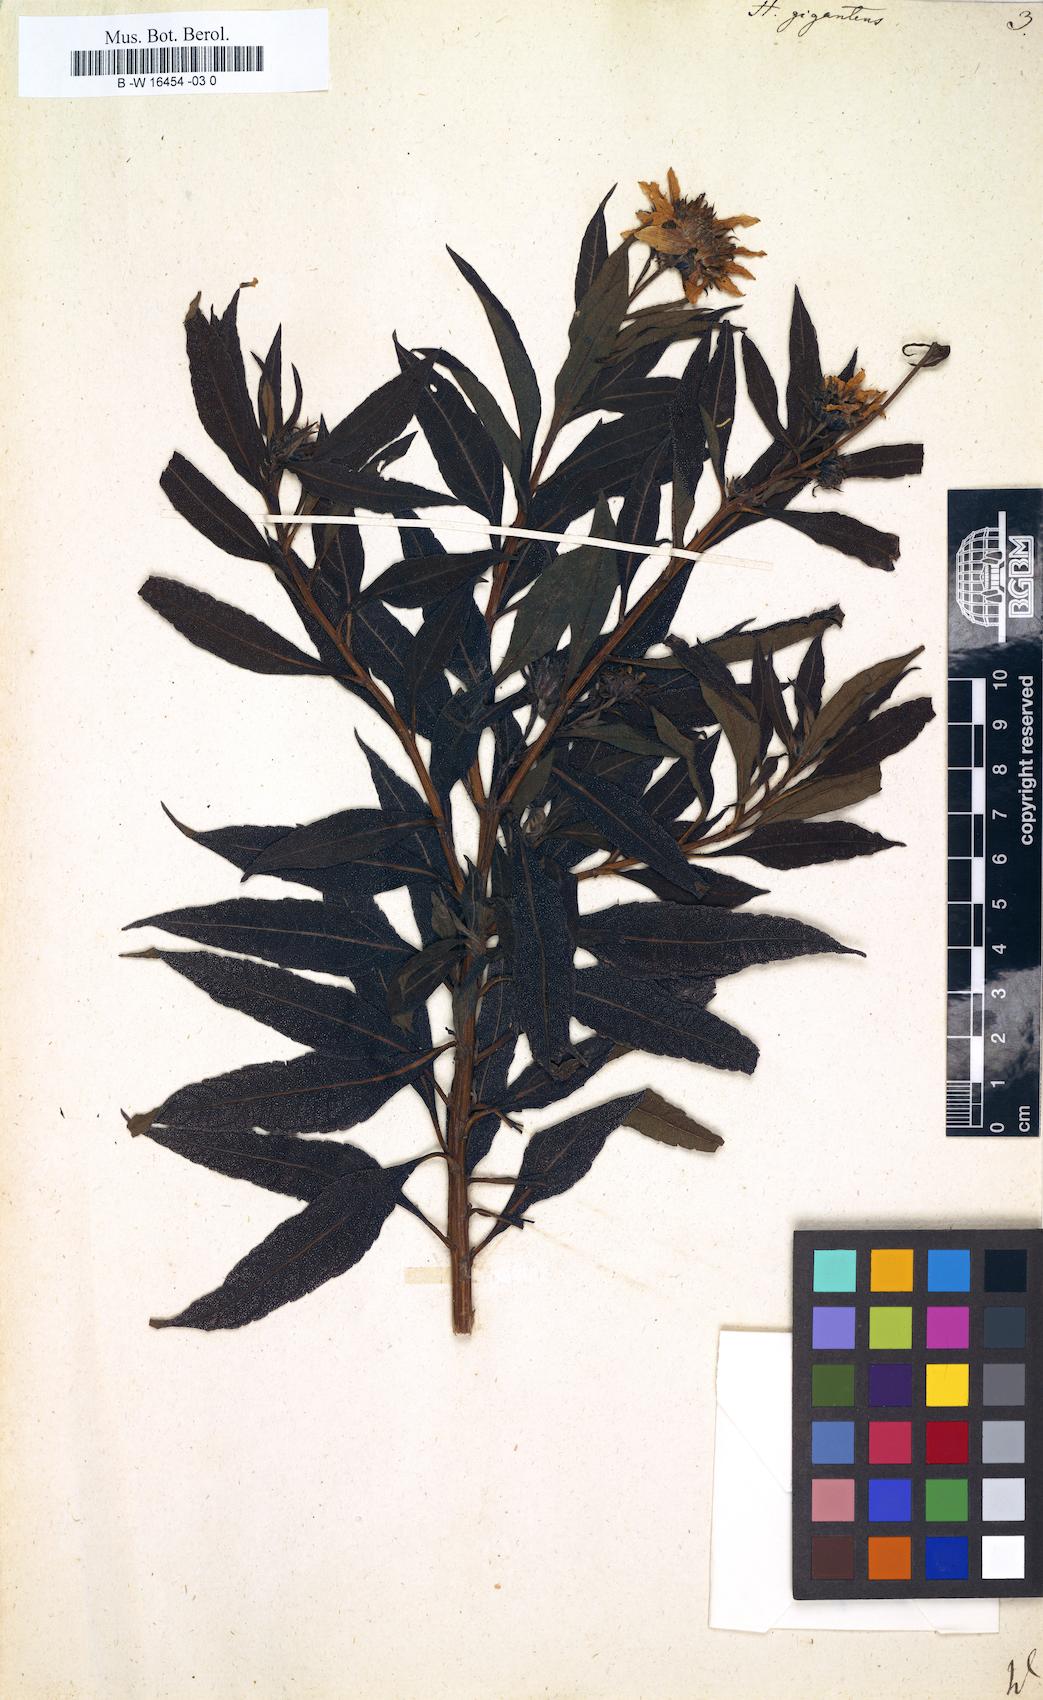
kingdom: Plantae
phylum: Tracheophyta
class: Magnoliopsida
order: Asterales
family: Asteraceae
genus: Helianthus
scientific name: Helianthus giganteus
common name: Giant sunflower
